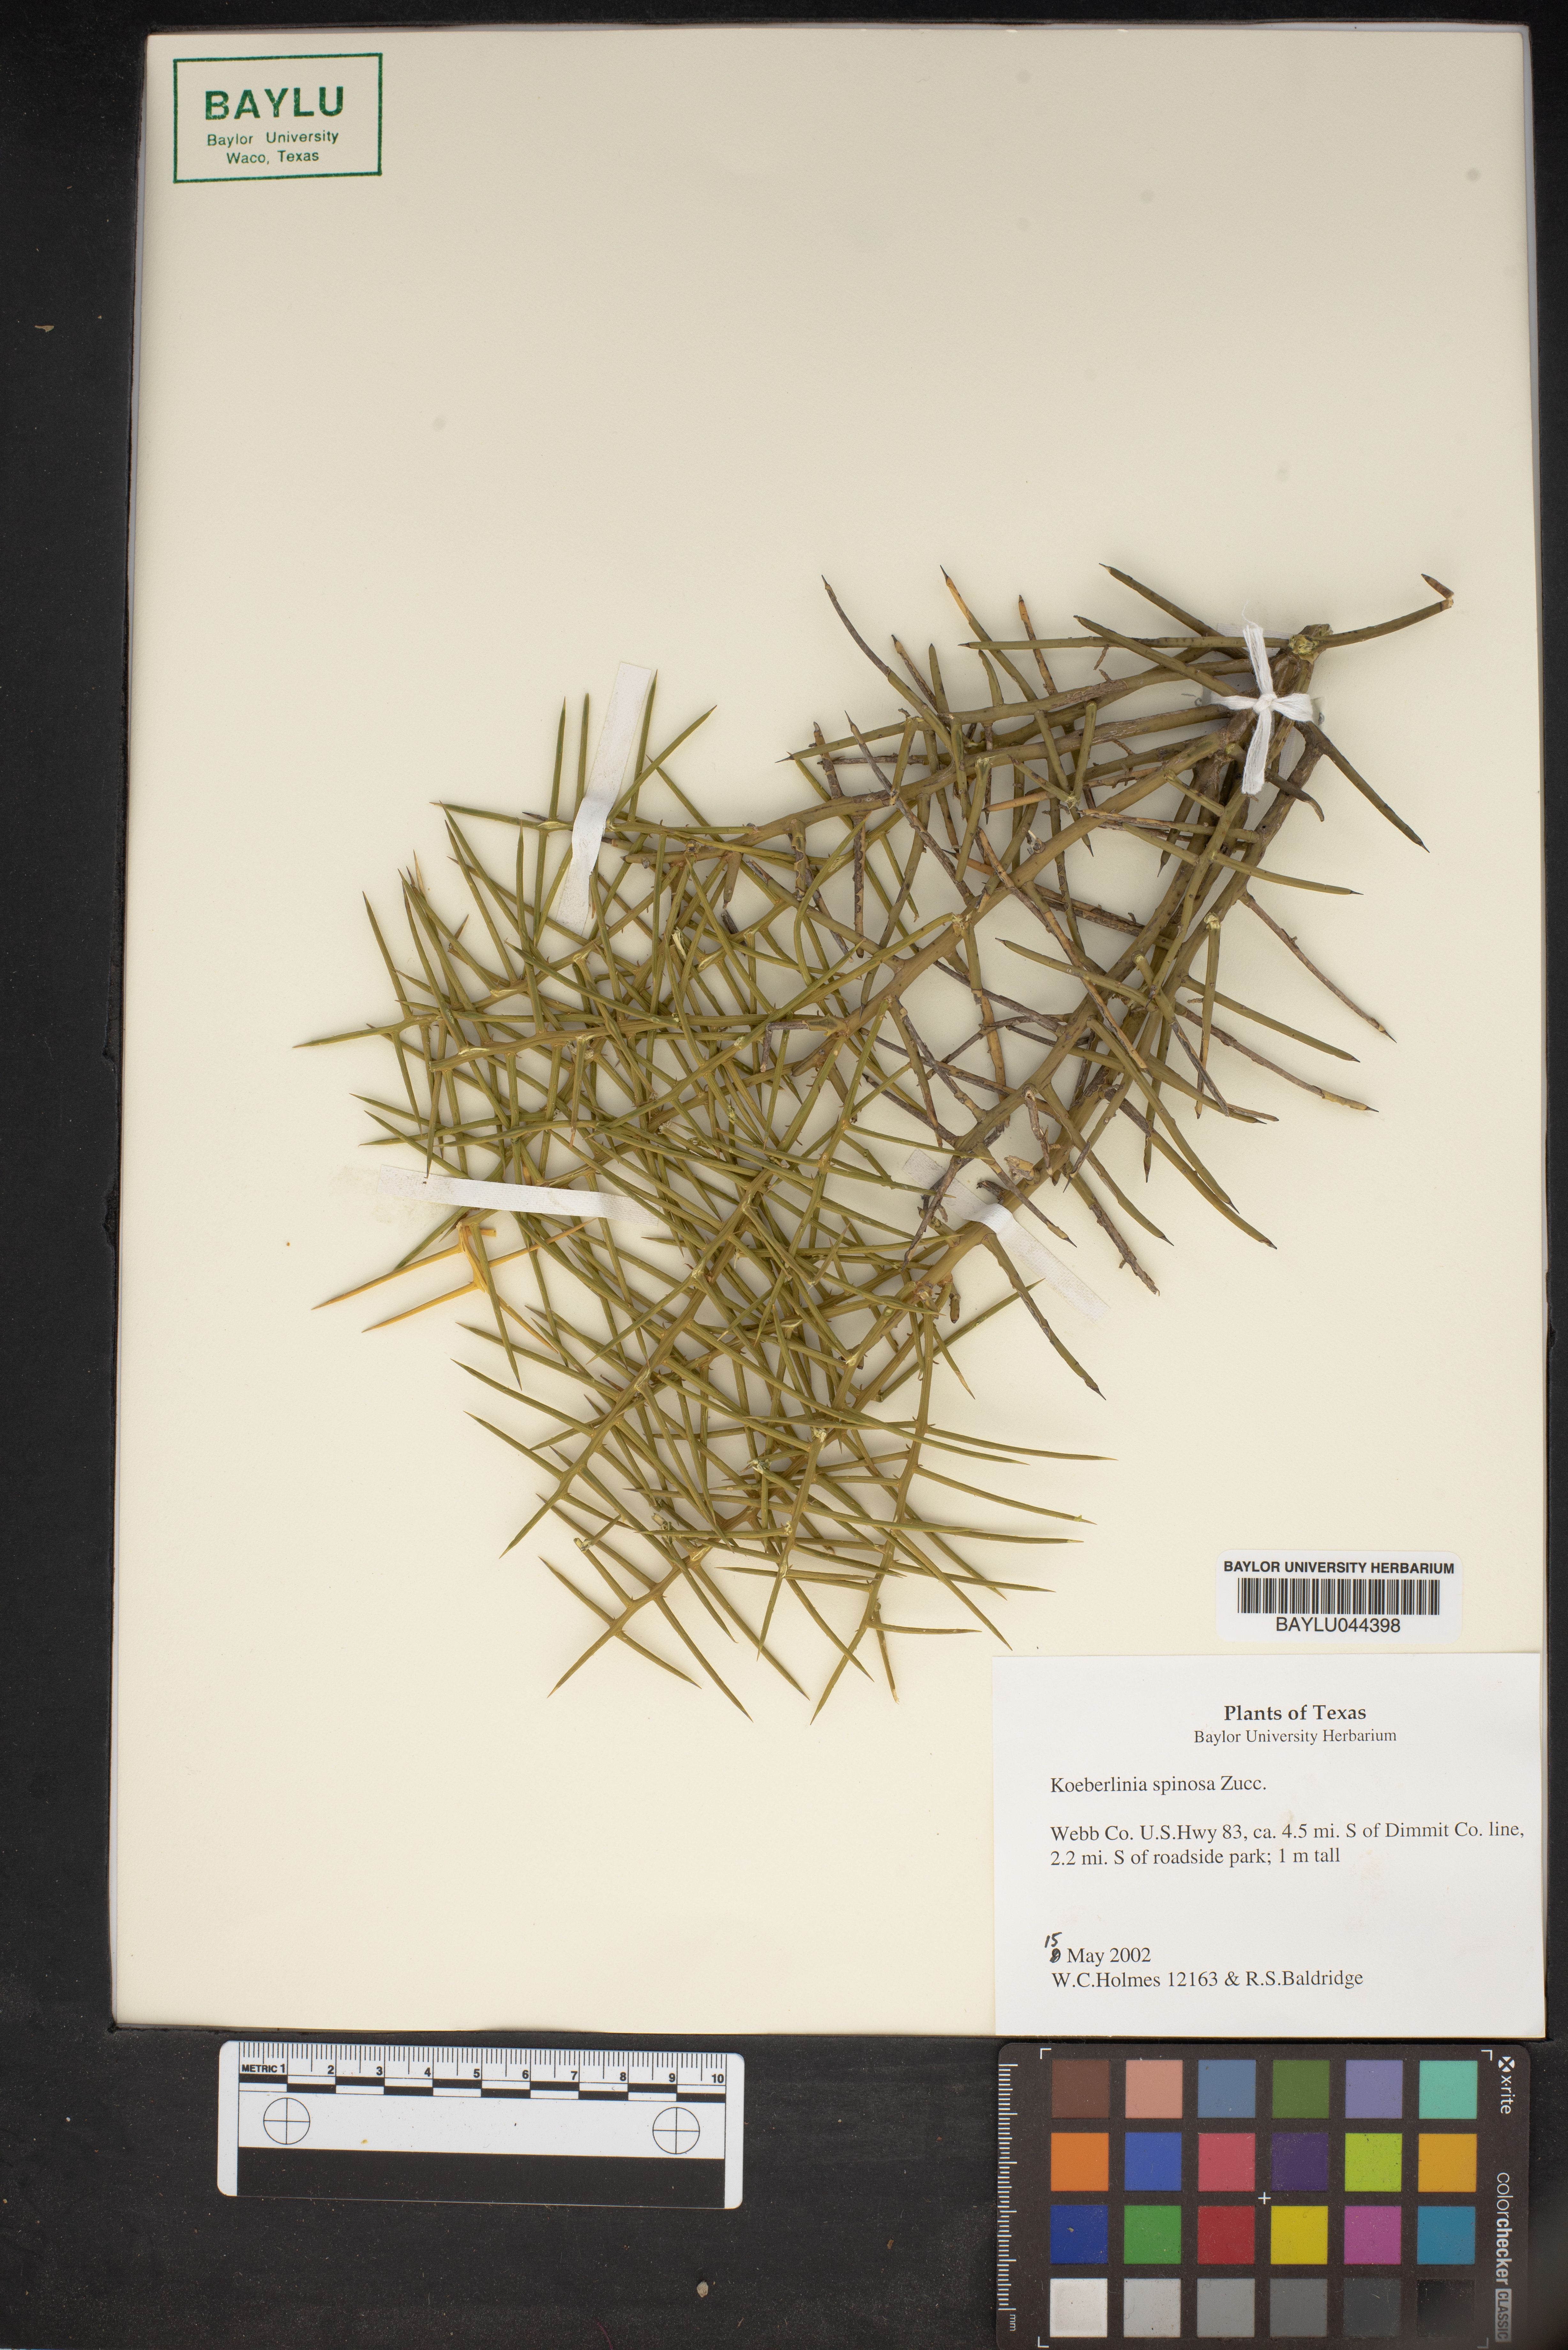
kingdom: Plantae
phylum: Tracheophyta
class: Magnoliopsida
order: Brassicales
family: Koeberliniaceae
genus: Koeberlinia
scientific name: Koeberlinia spinosa
